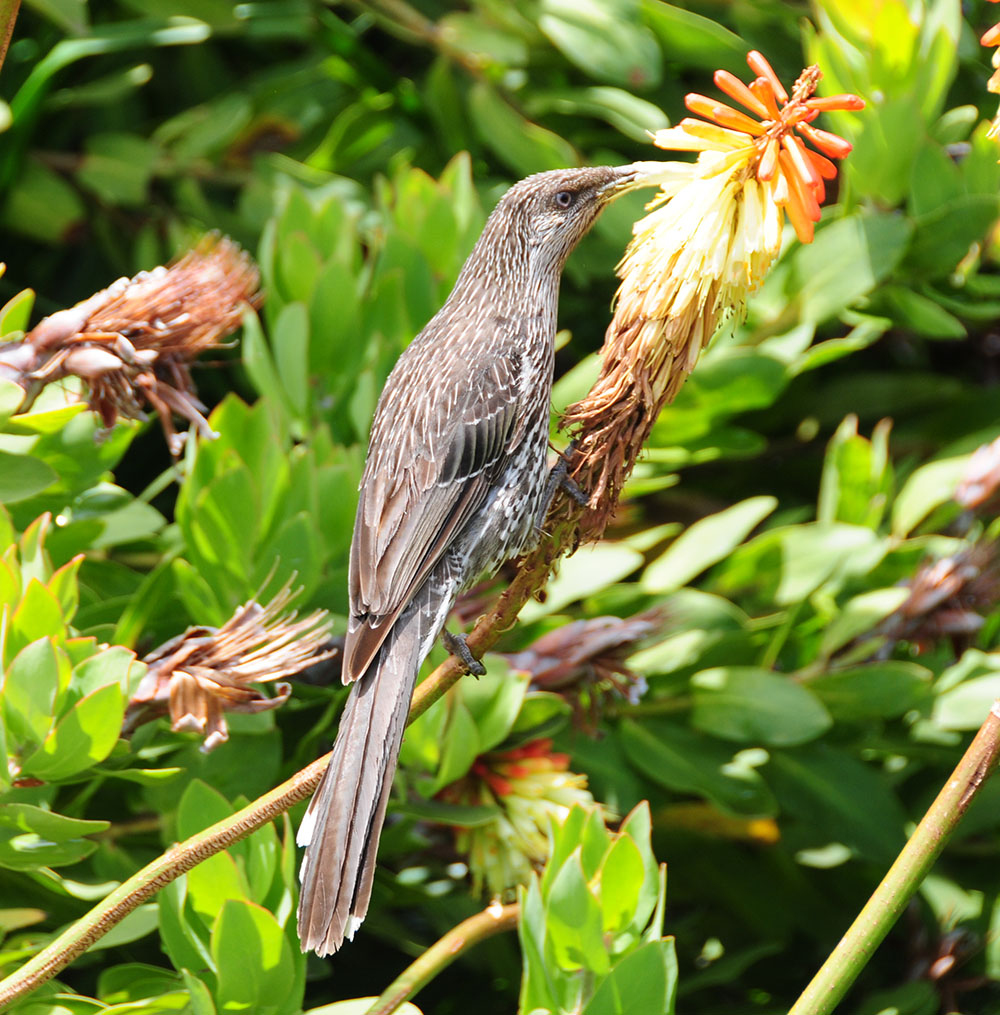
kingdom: Animalia
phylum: Chordata
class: Aves
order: Passeriformes
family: Meliphagidae
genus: Anthochaera
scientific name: Anthochaera chrysoptera
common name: Little wattlebird
